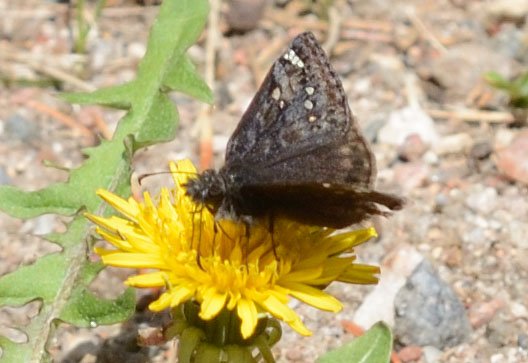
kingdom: Animalia
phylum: Arthropoda
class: Insecta
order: Lepidoptera
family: Hesperiidae
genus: Gesta
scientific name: Gesta
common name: Juvenal's Duskywing
